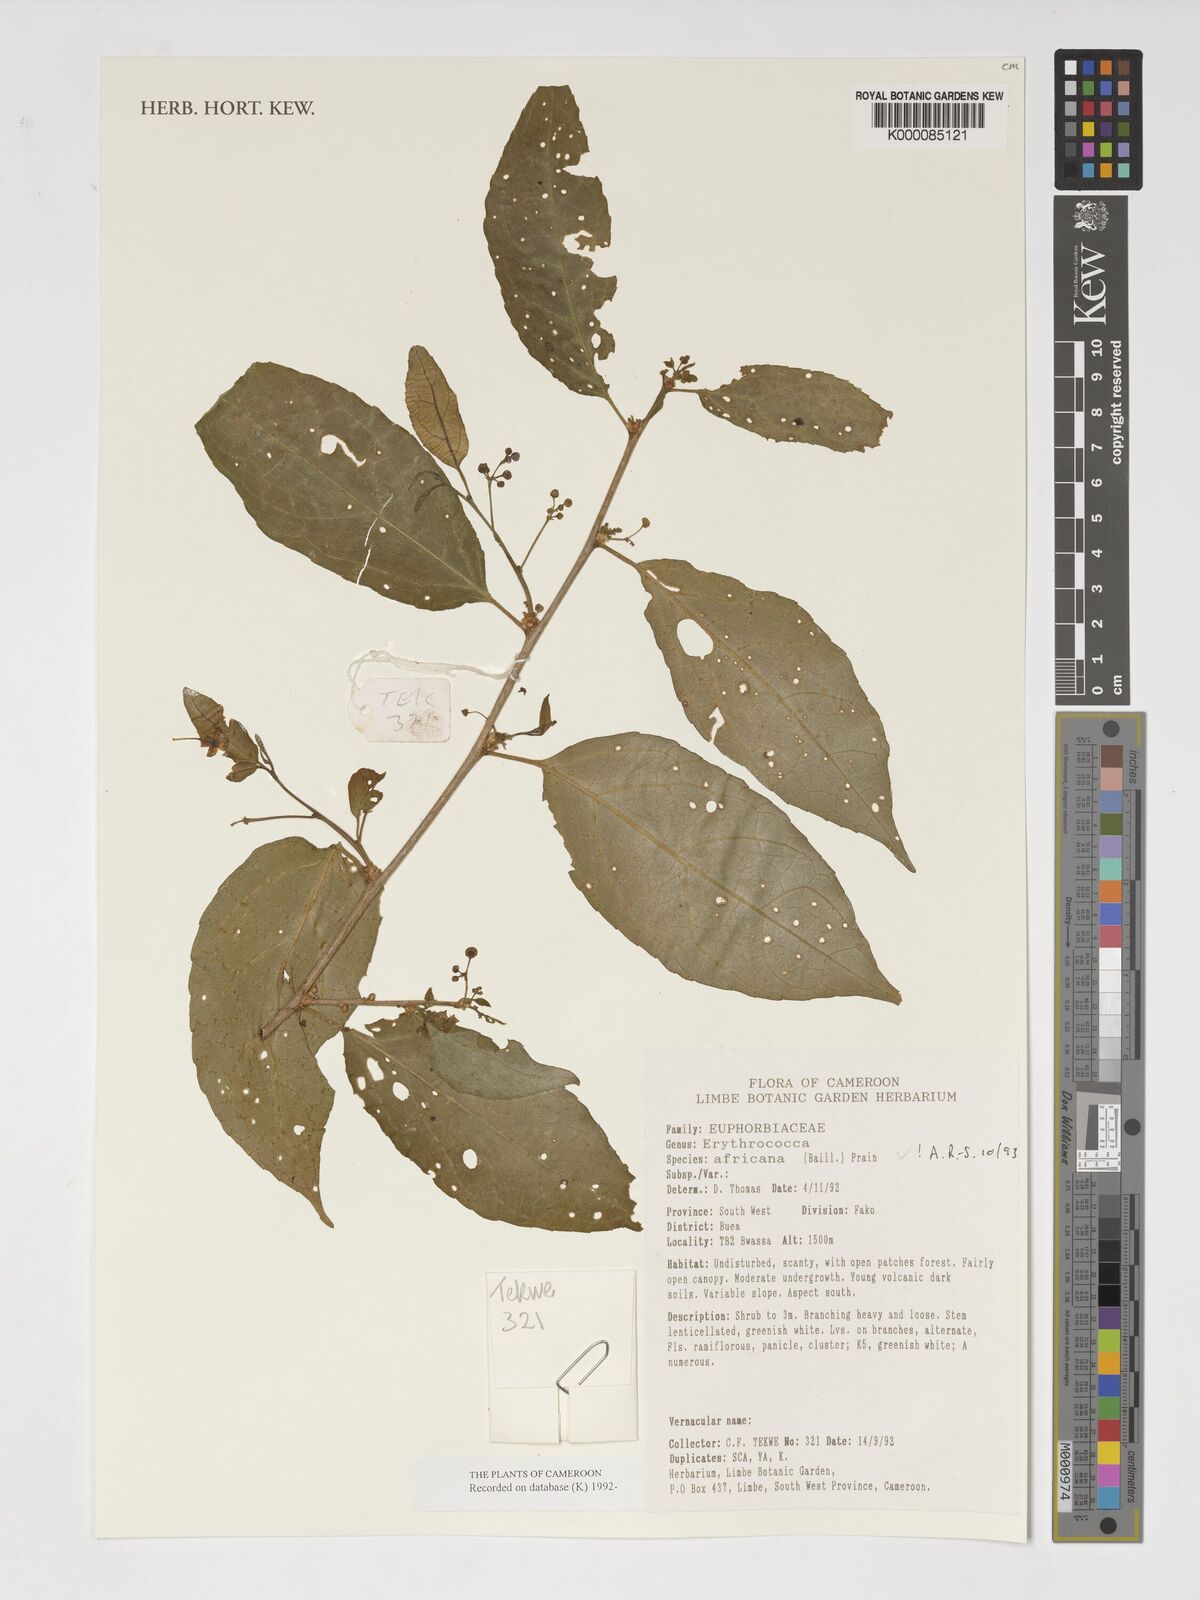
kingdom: Plantae
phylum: Tracheophyta
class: Magnoliopsida
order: Malpighiales
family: Euphorbiaceae
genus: Erythrococca
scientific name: Erythrococca africana
